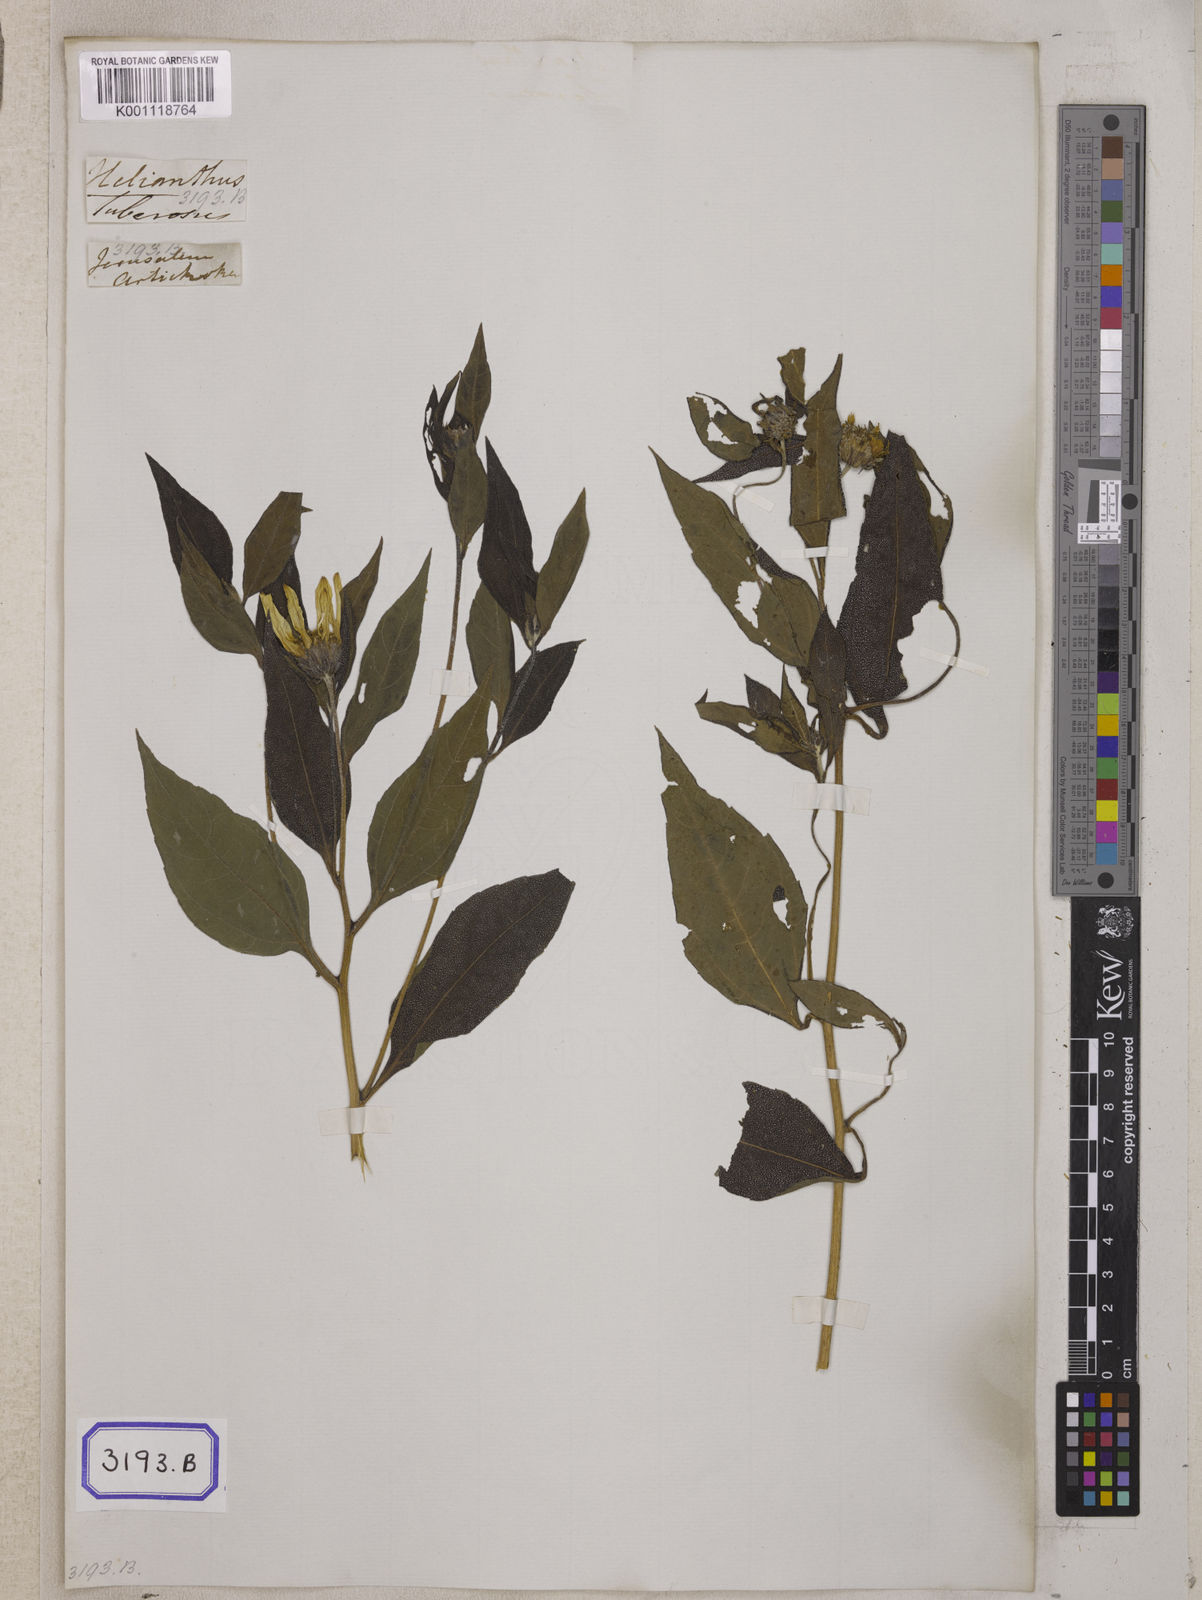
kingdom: Plantae
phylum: Tracheophyta
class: Magnoliopsida
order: Asterales
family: Asteraceae
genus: Helianthus
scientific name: Helianthus tuberosus
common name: Jerusalem artichoke
